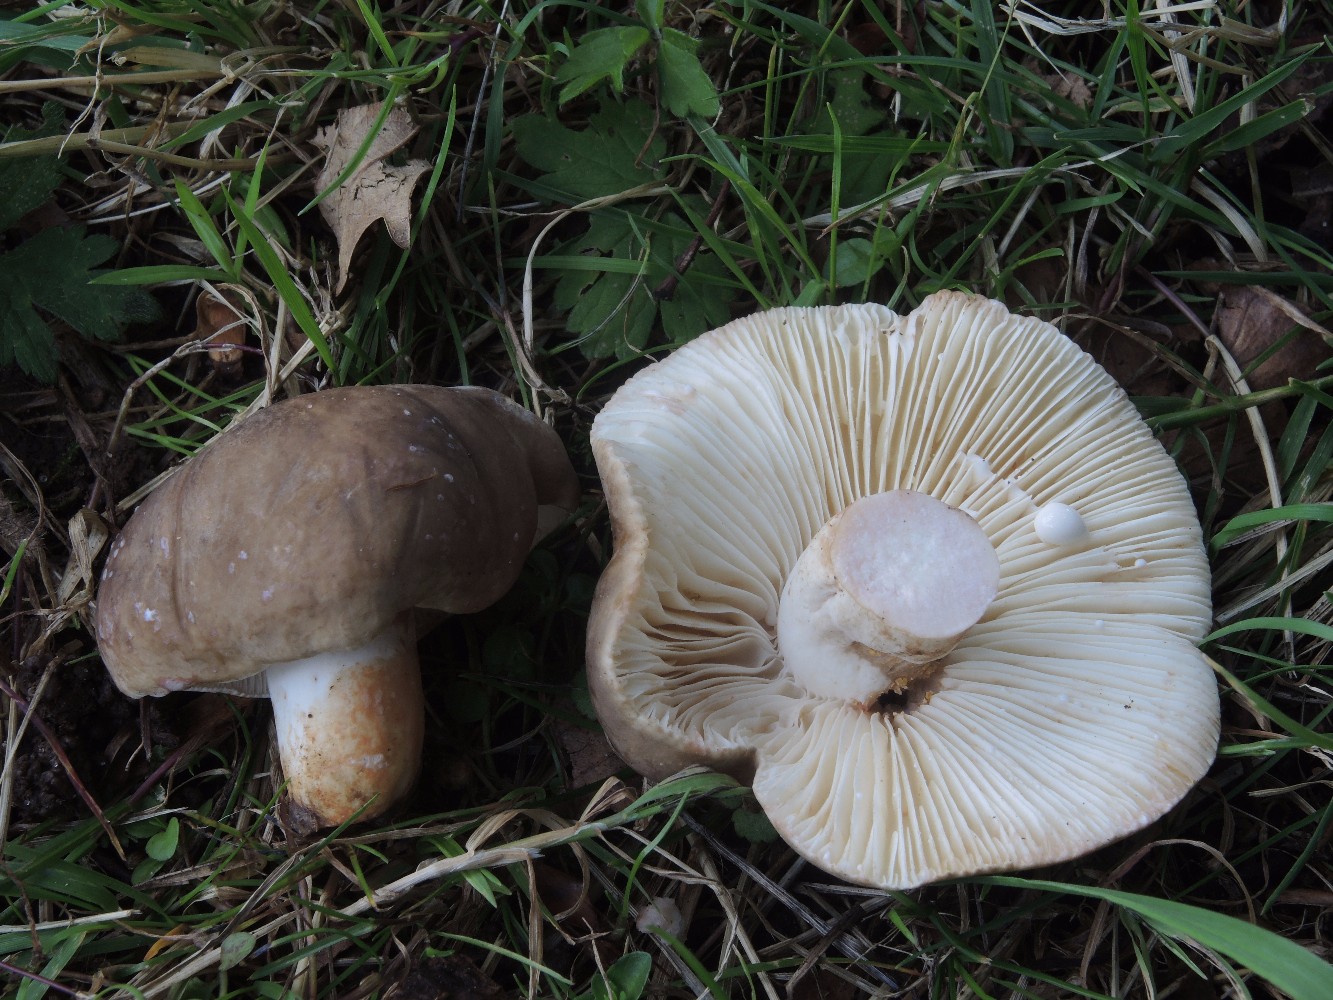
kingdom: Fungi
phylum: Basidiomycota
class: Agaricomycetes
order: Russulales
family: Russulaceae
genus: Lactarius
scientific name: Lactarius azonites
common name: røggrå mælkehat
